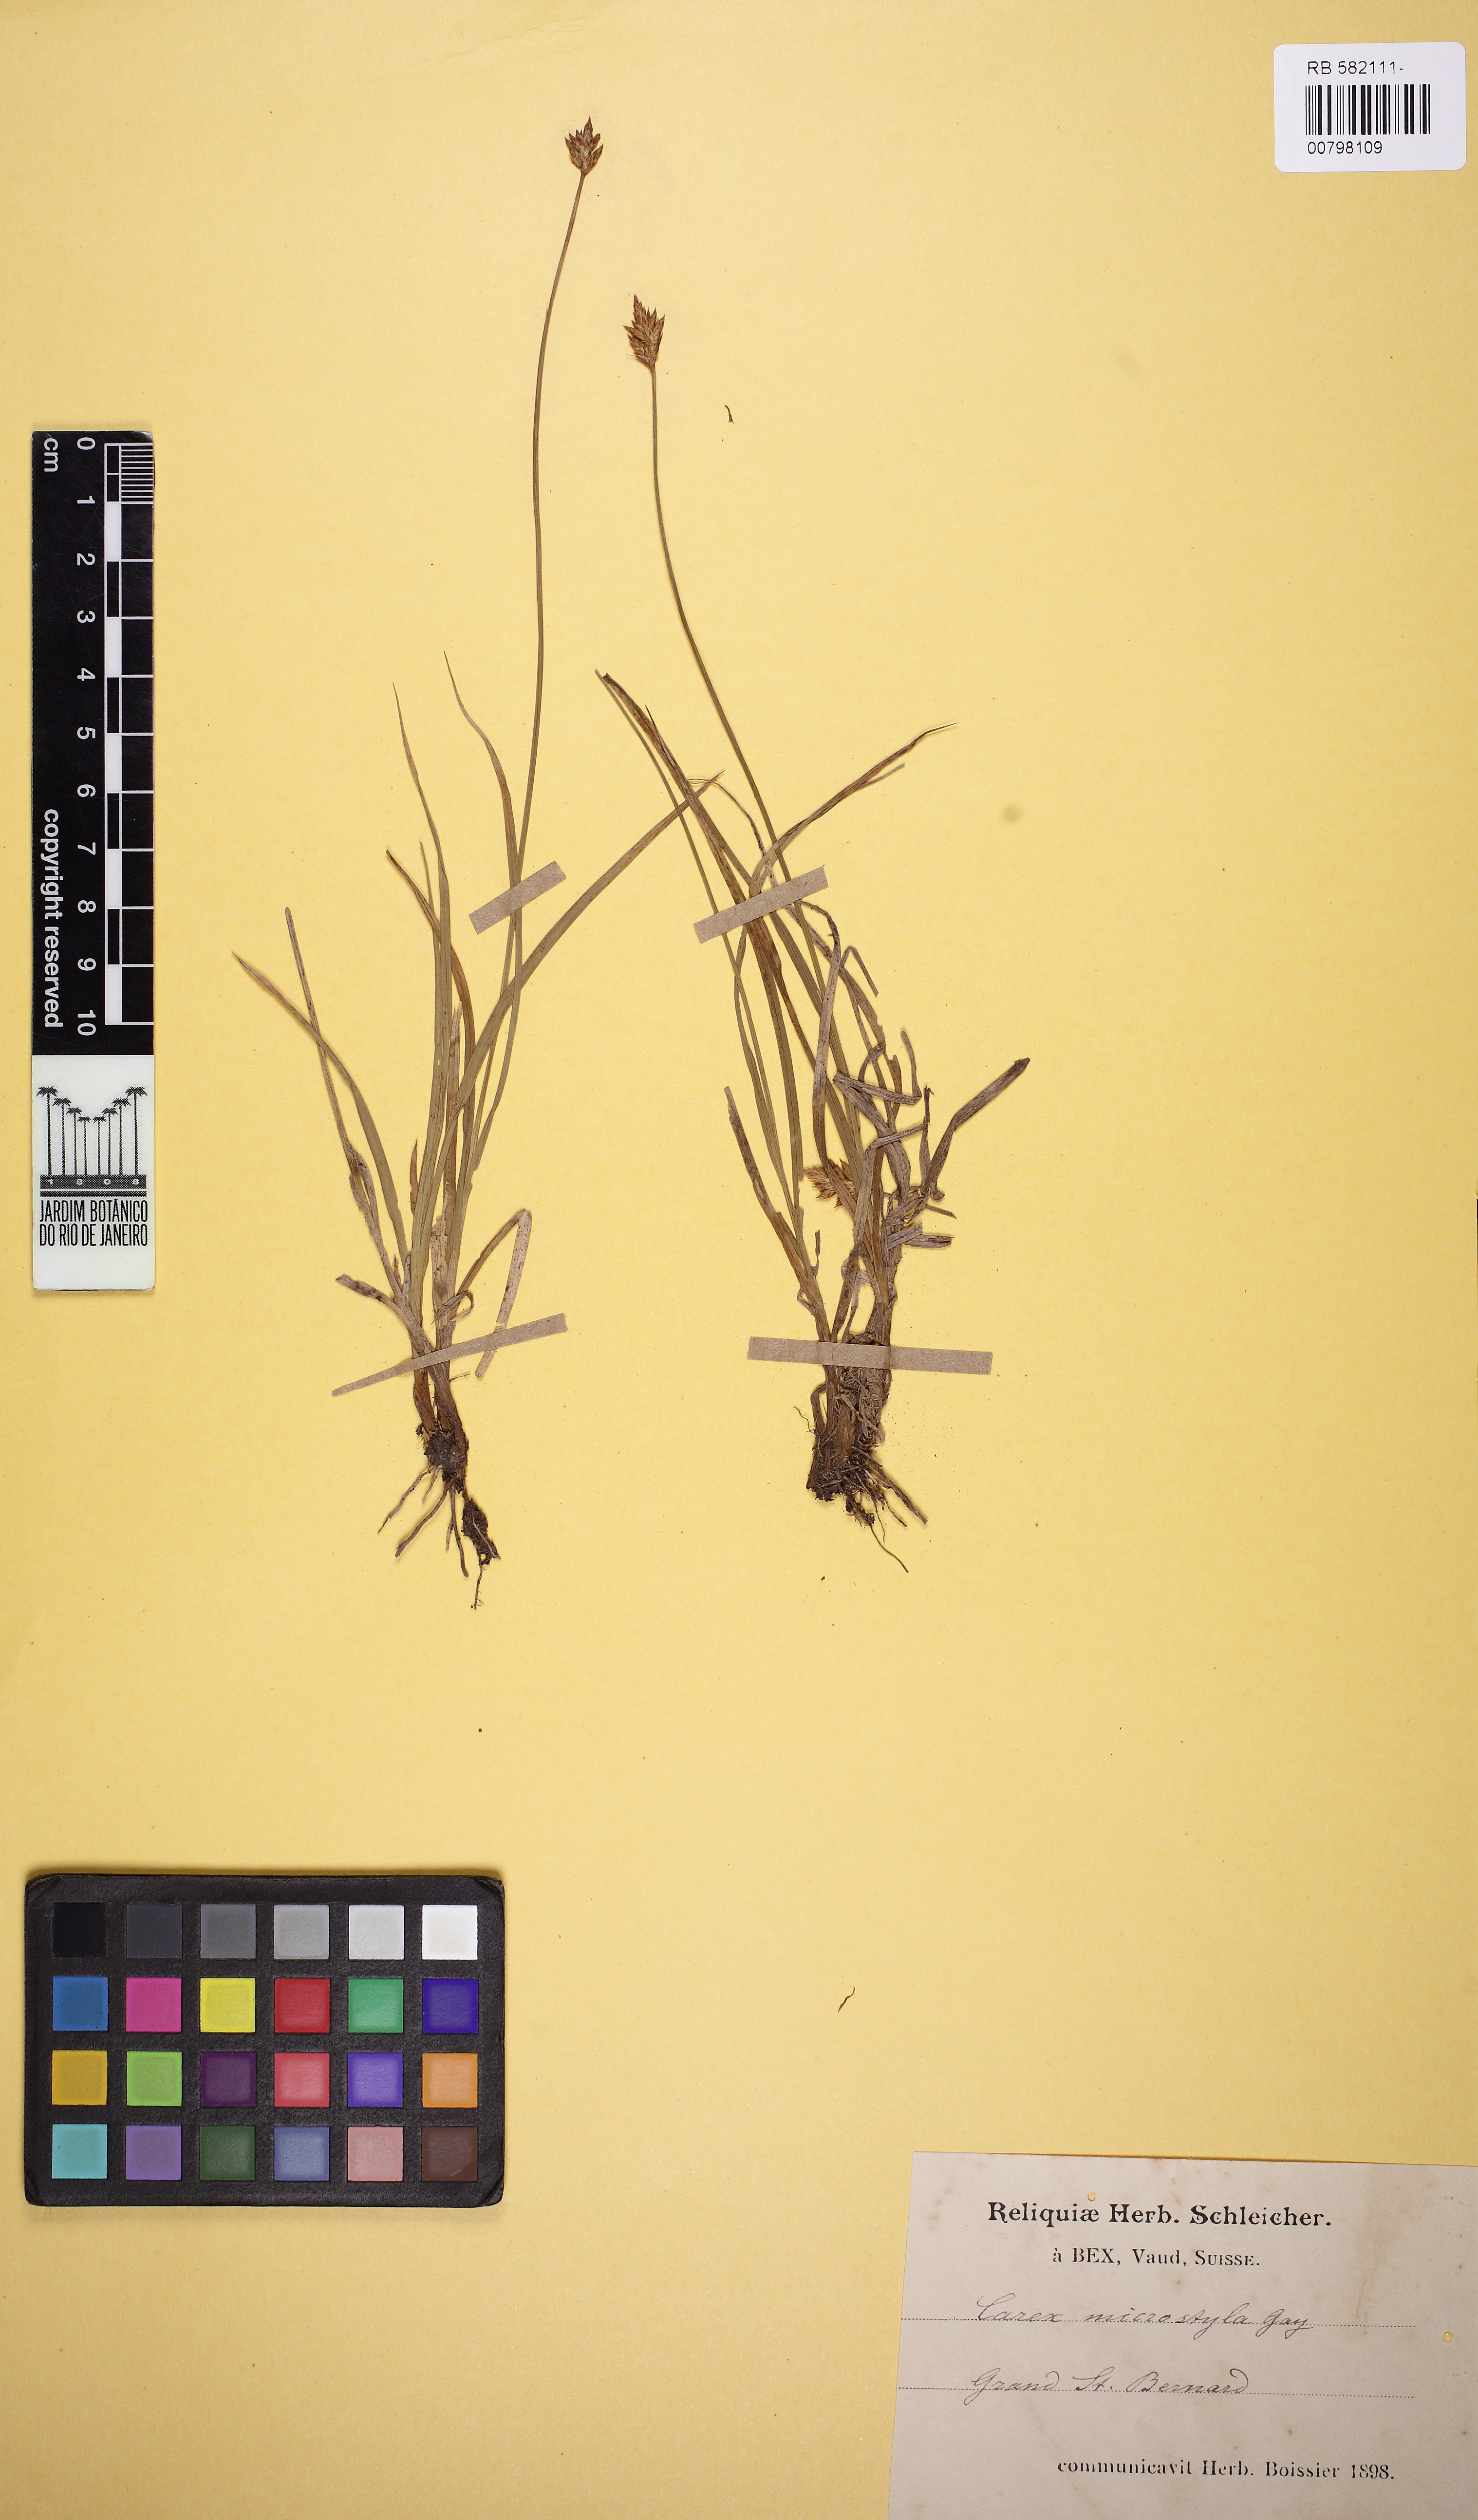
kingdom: Plantae
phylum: Tracheophyta
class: Liliopsida
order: Poales
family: Cyperaceae
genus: Carex
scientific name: Carex microstyla
